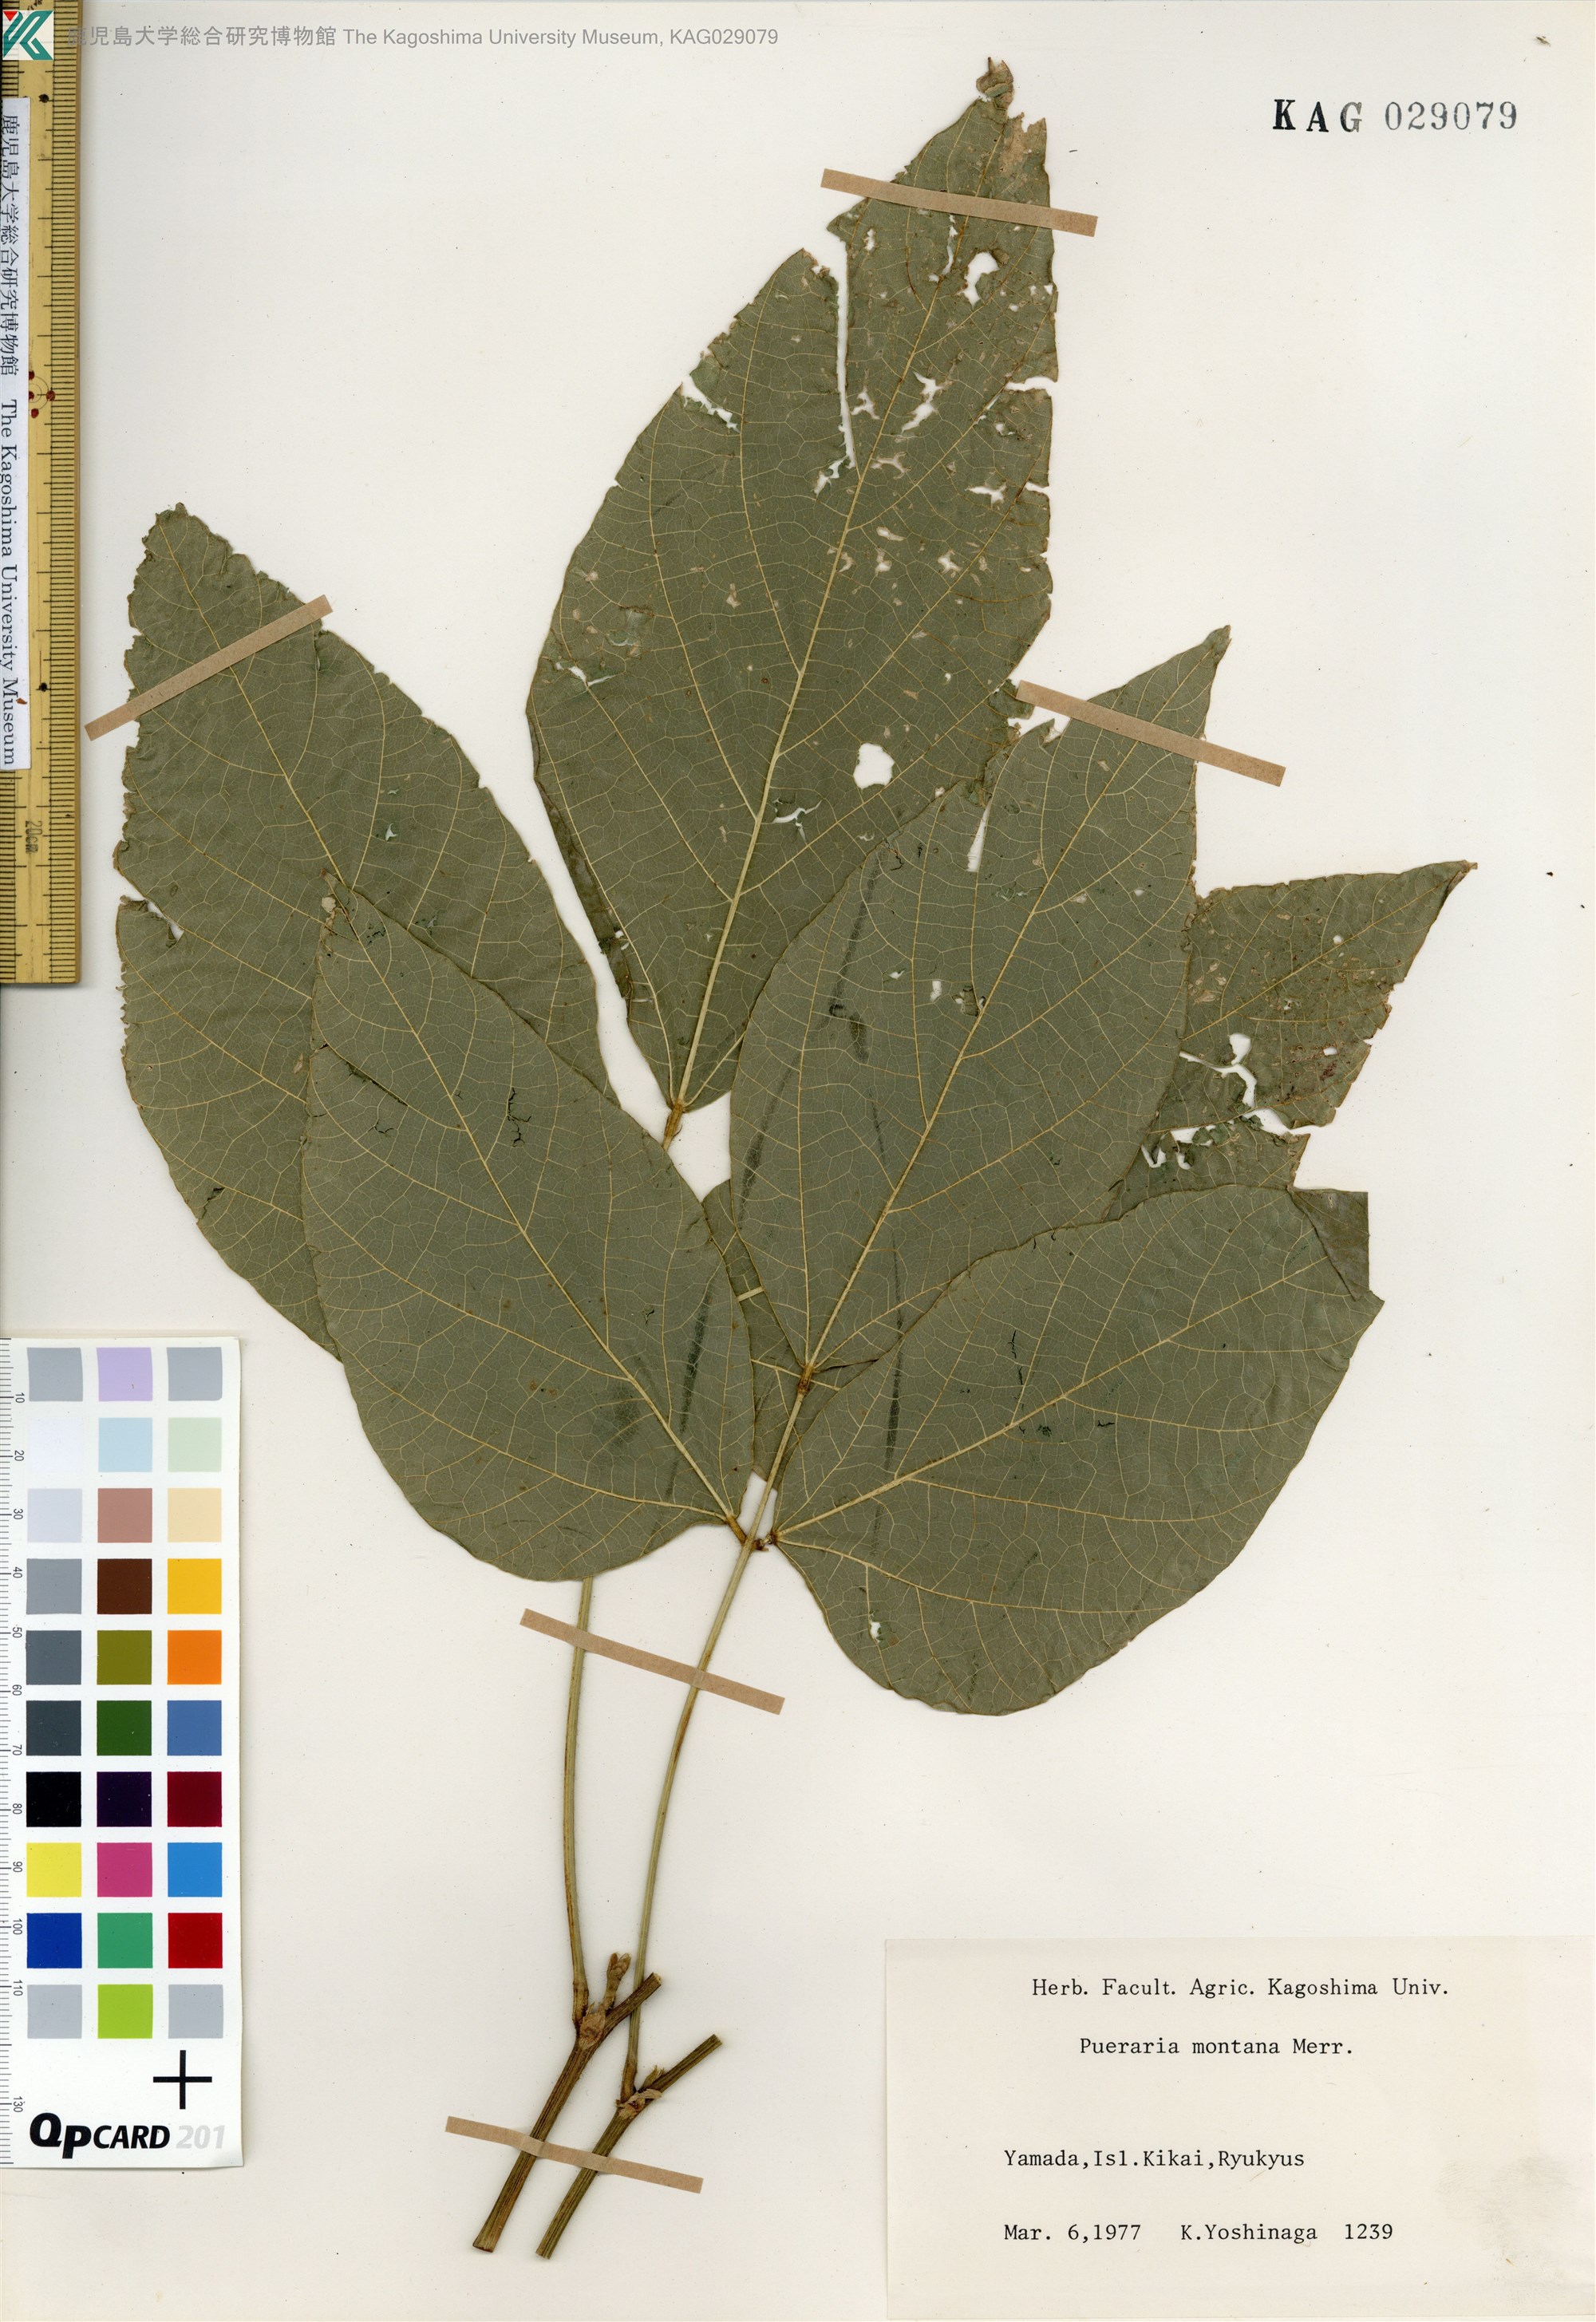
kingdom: Plantae
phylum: Tracheophyta
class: Magnoliopsida
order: Fabales
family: Fabaceae
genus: Pueraria
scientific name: Pueraria montana
